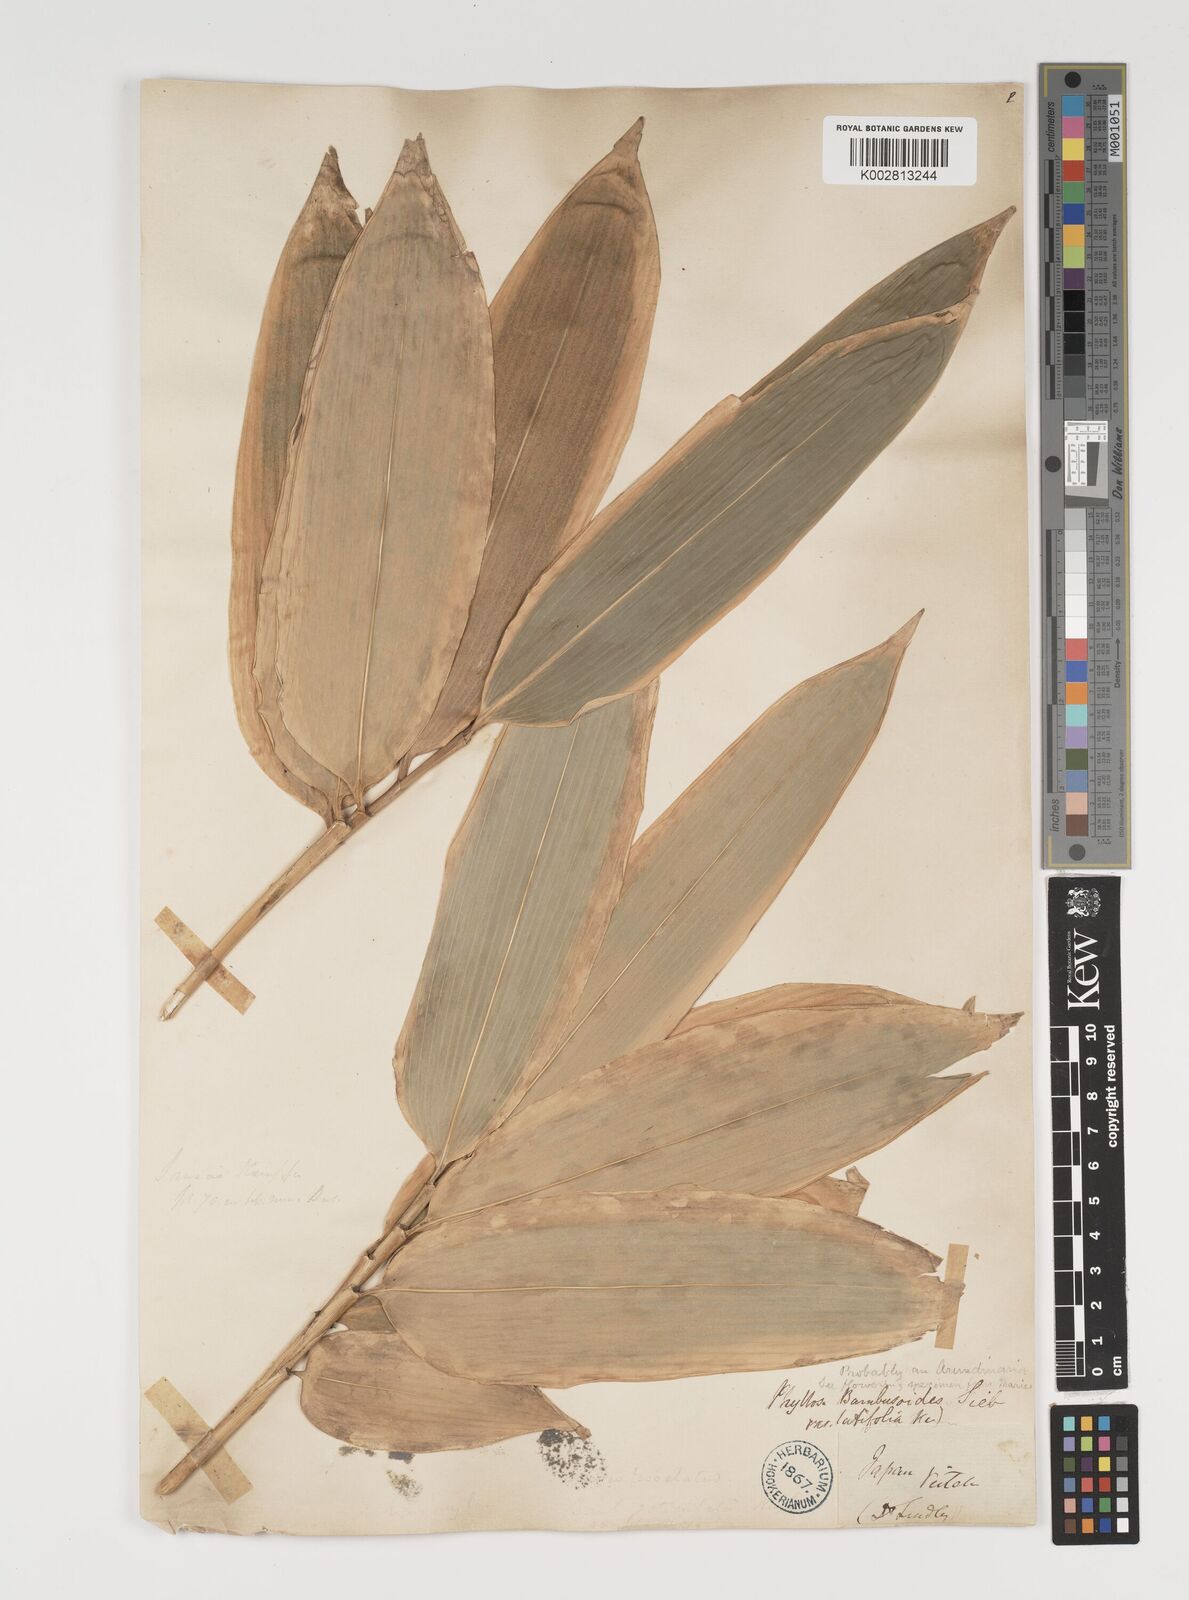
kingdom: Plantae
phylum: Tracheophyta
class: Liliopsida
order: Poales
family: Poaceae
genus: Sasa
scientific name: Sasa veitchii
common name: Veitch's bamboo
